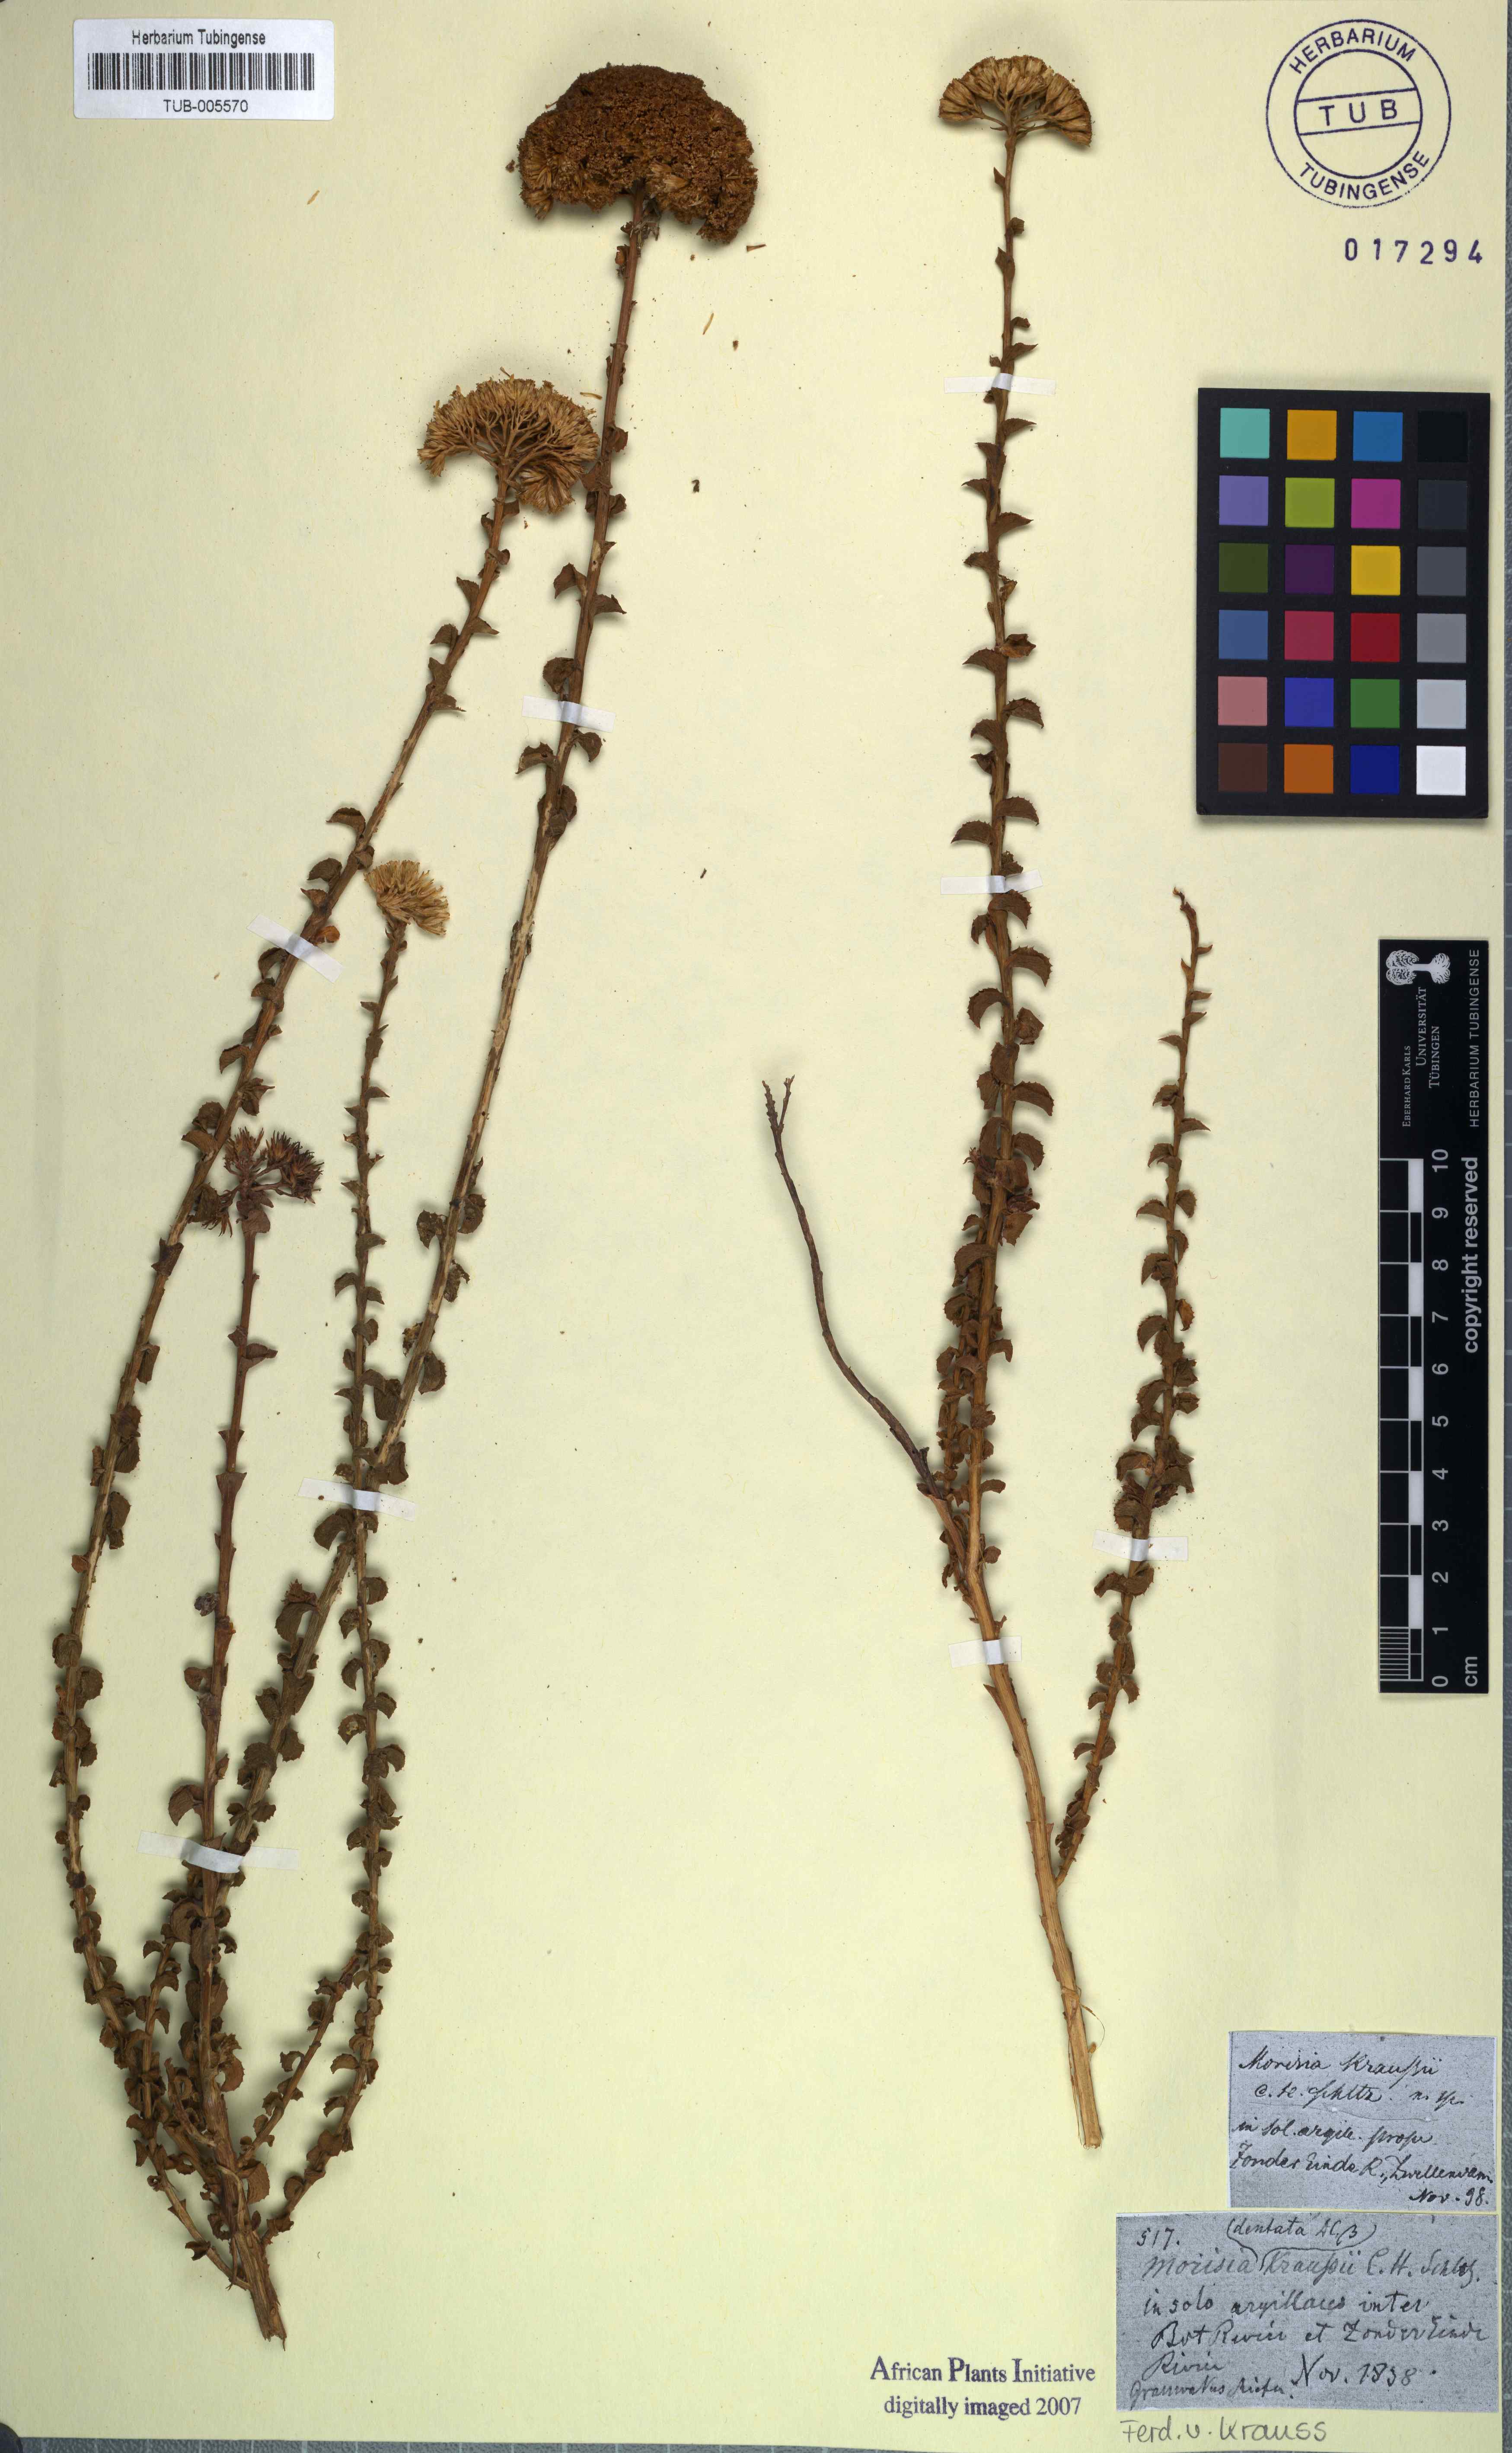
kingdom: Plantae
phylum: Tracheophyta
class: Magnoliopsida
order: Asterales
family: Asteraceae
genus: Athanasia
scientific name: Athanasia dentata
